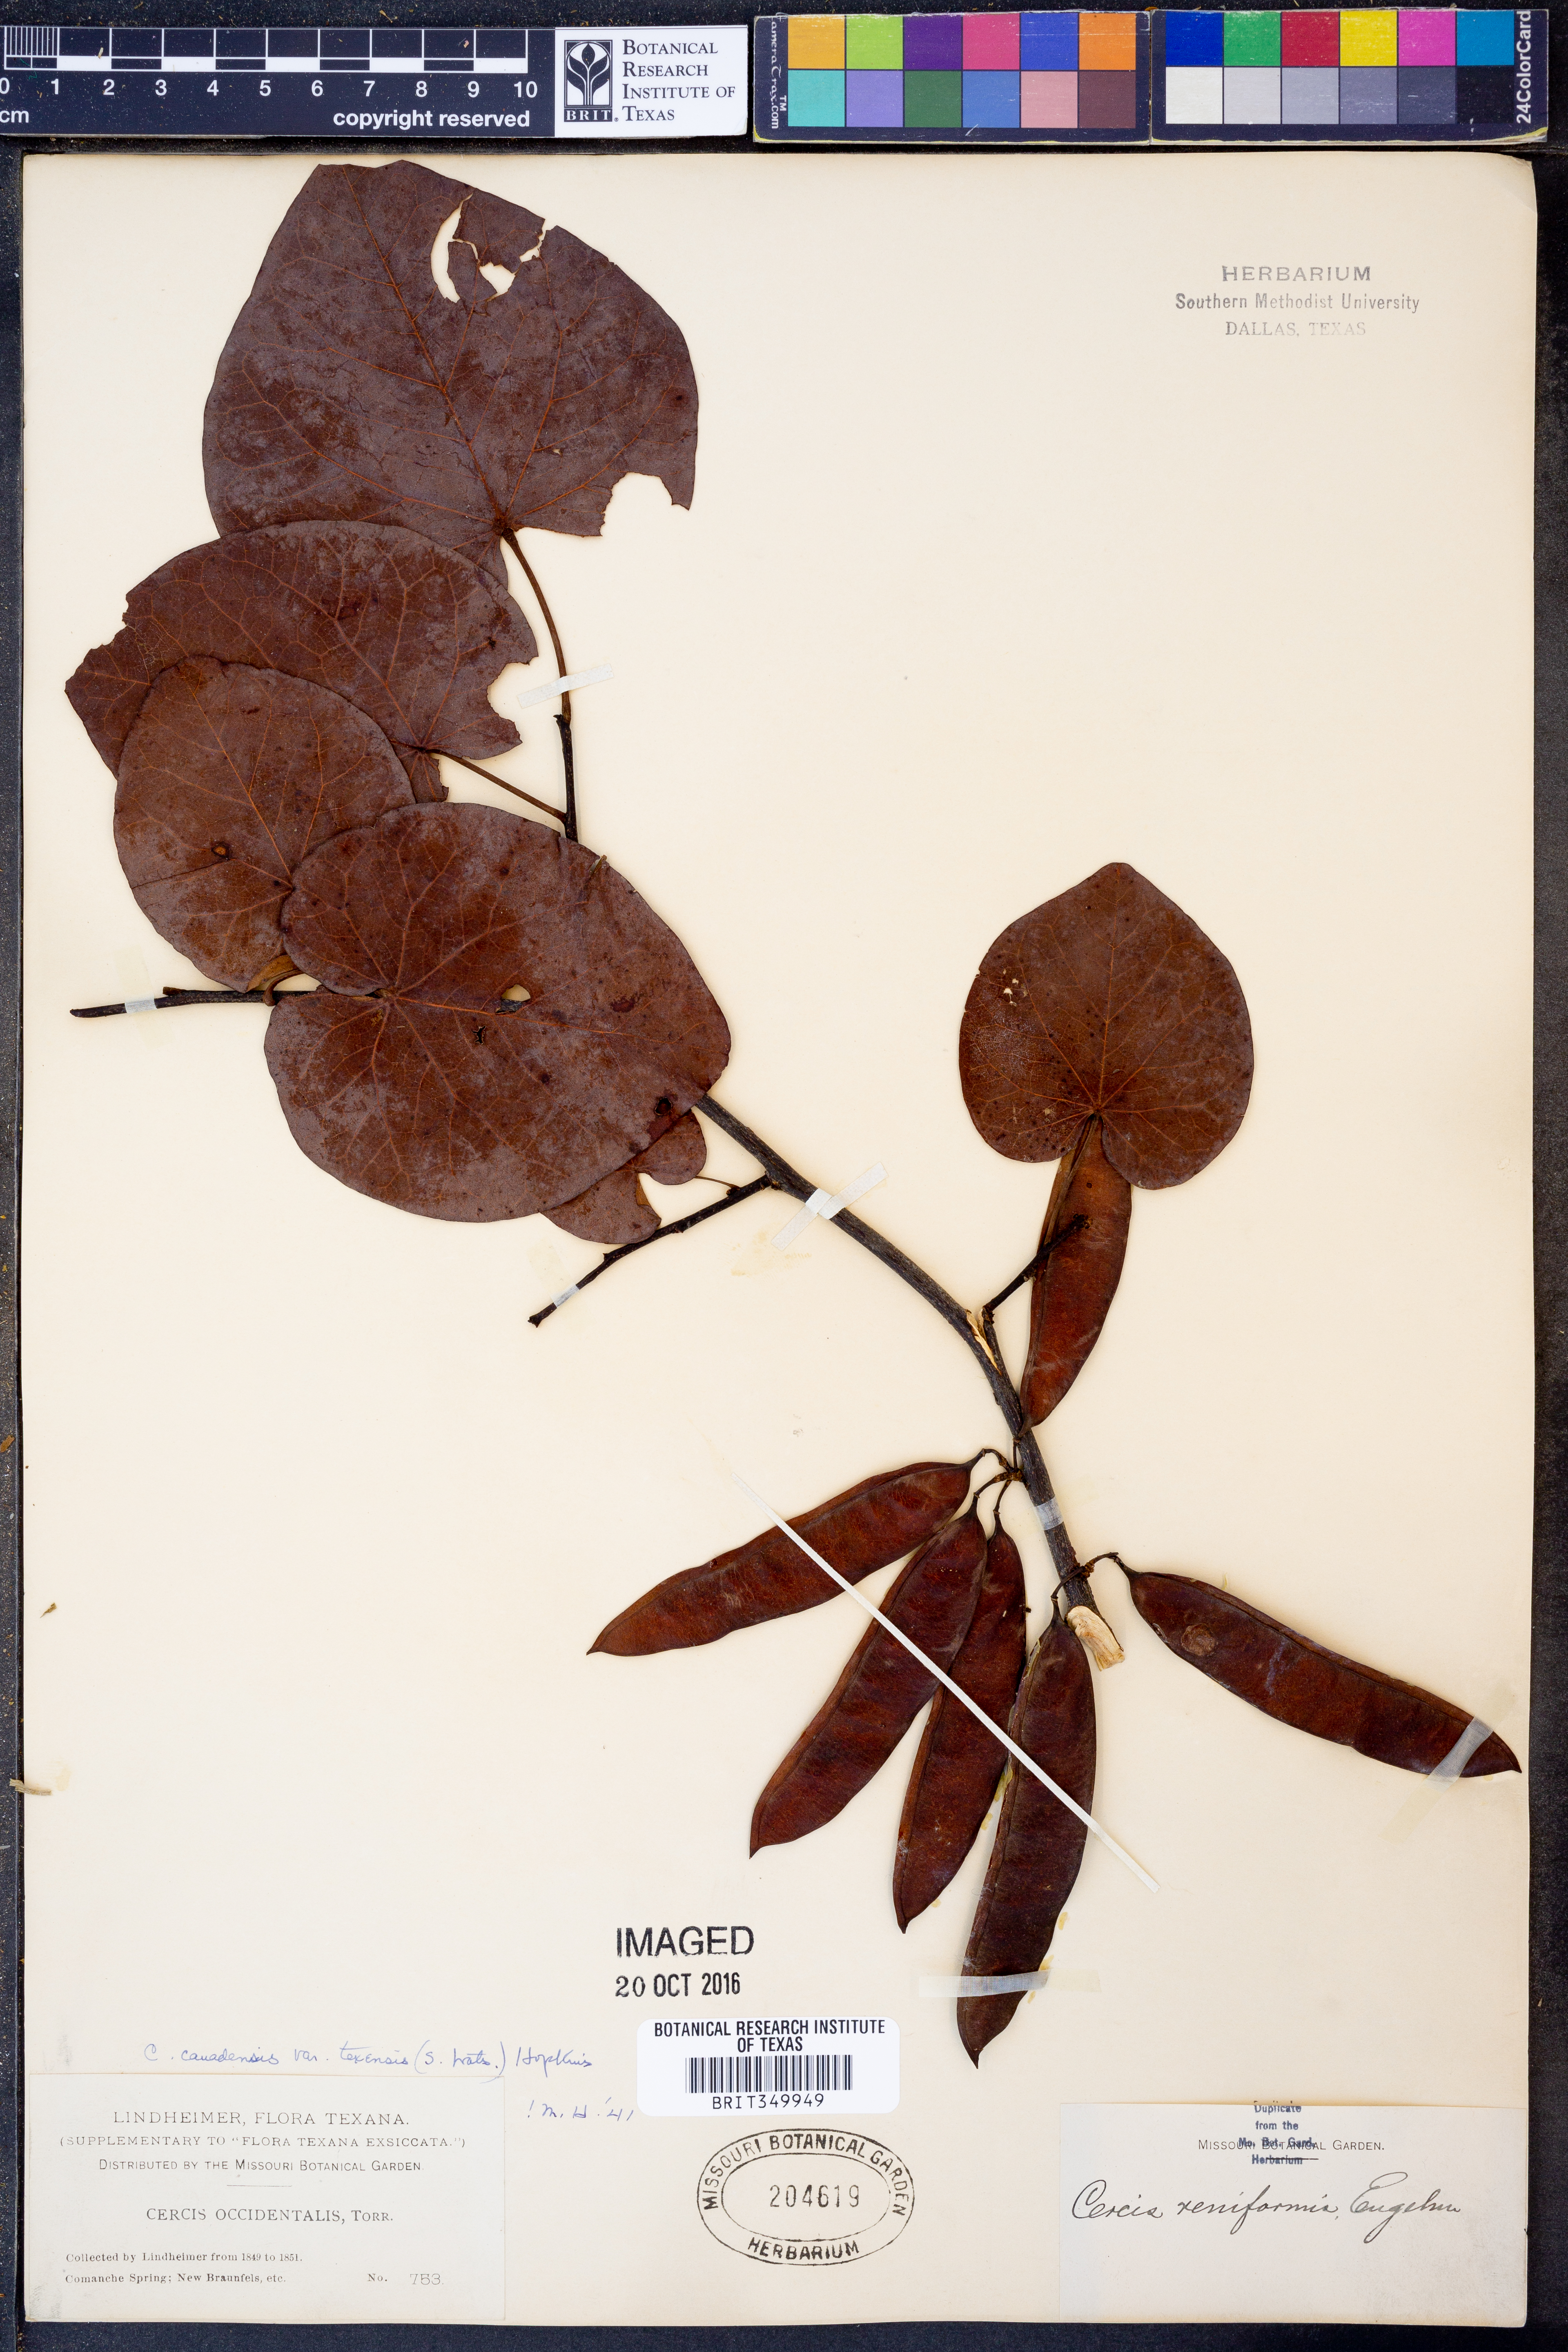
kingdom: Plantae
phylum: Tracheophyta
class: Magnoliopsida
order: Fabales
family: Fabaceae
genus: Cercis
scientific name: Cercis canadensis
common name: Eastern redbud
